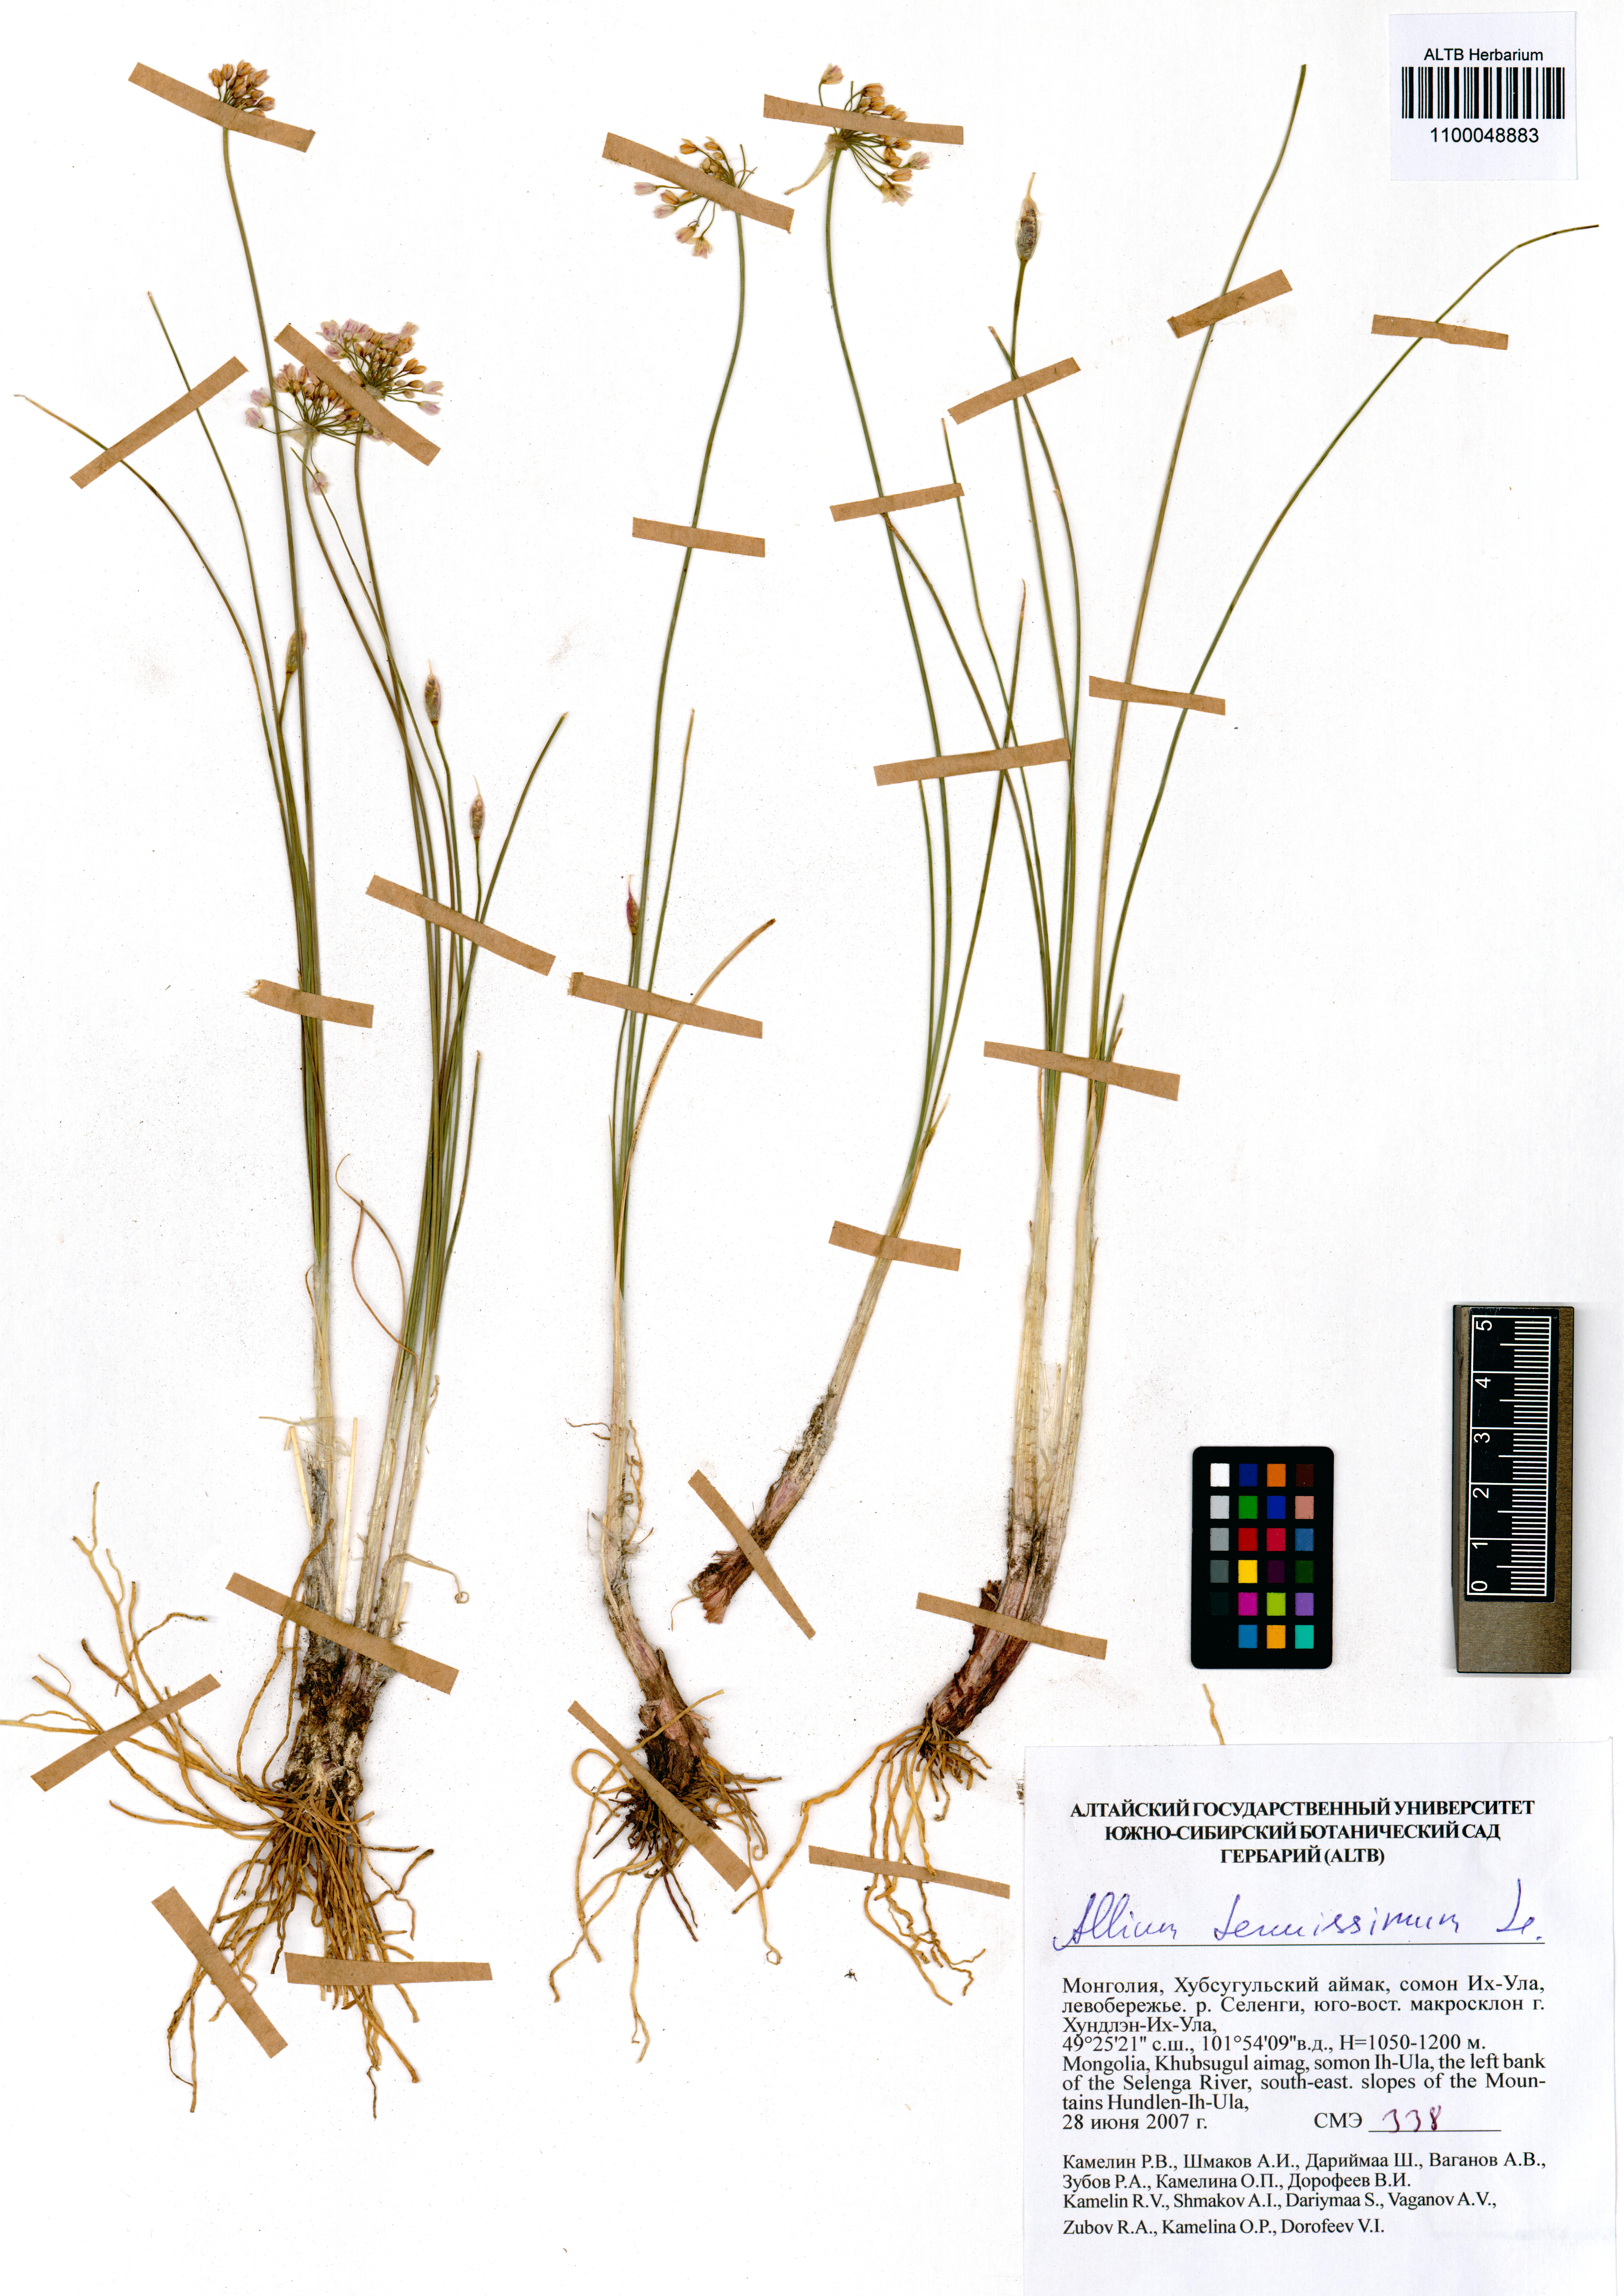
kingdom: Plantae
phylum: Tracheophyta
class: Liliopsida
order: Asparagales
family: Amaryllidaceae
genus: Allium
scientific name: Allium tenuissimum
